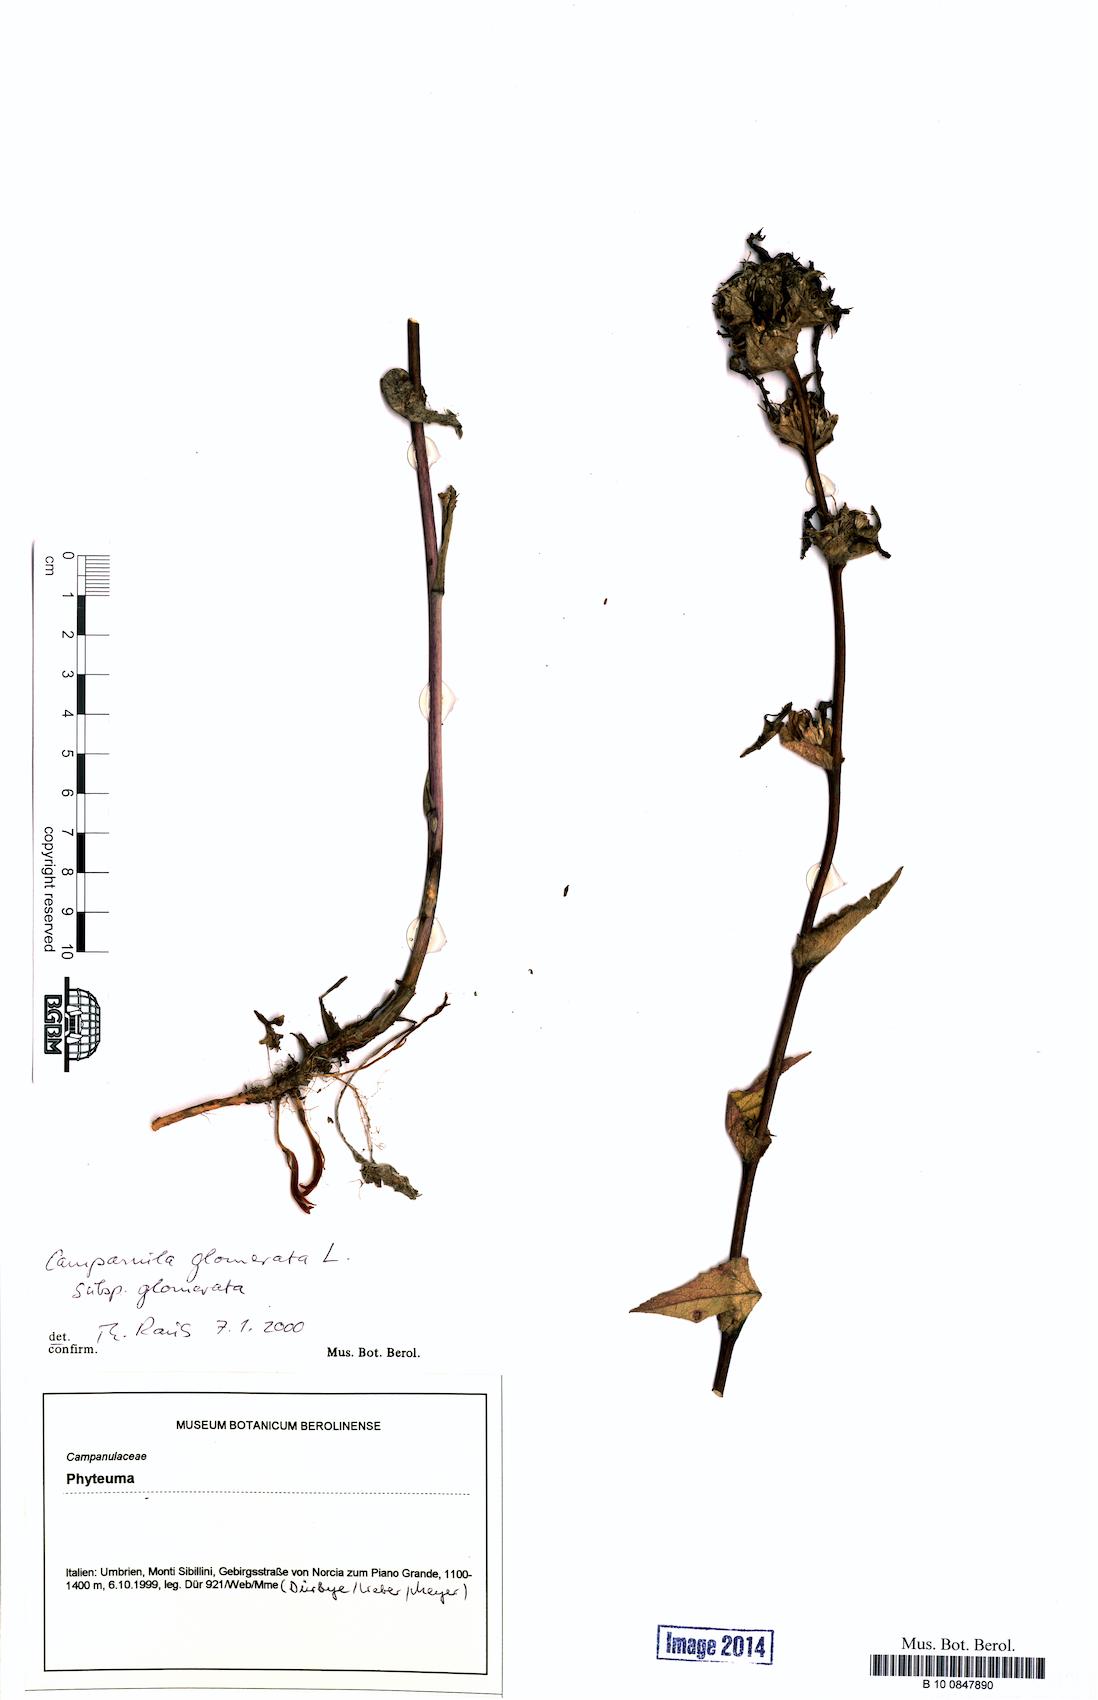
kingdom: Plantae
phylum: Tracheophyta
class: Magnoliopsida
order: Asterales
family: Campanulaceae
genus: Campanula
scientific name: Campanula glomerata
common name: Clustered bellflower
